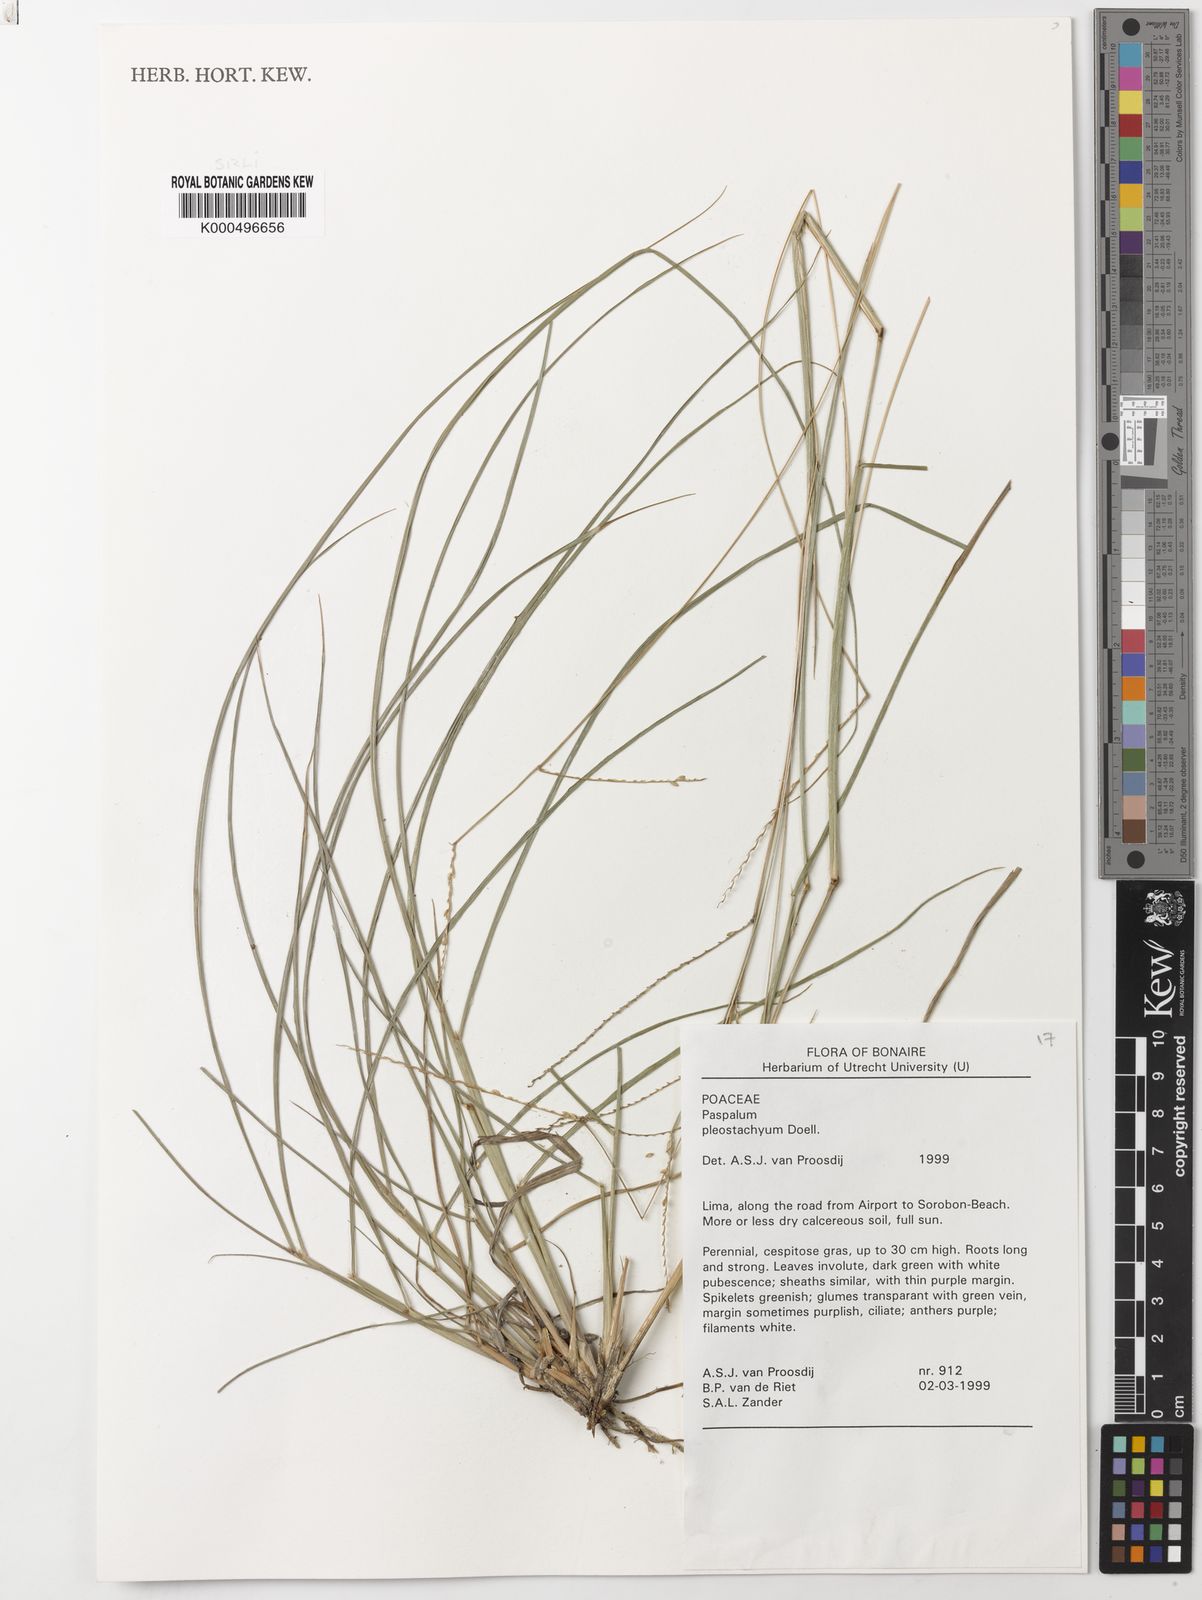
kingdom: Plantae
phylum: Tracheophyta
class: Liliopsida
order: Poales
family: Poaceae
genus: Paspalum
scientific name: Paspalum
